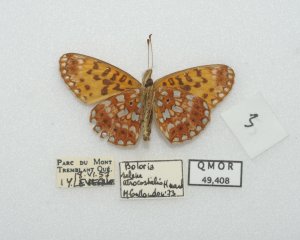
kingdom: Animalia
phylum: Arthropoda
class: Insecta
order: Lepidoptera
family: Nymphalidae
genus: Boloria
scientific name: Boloria selene
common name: Silver-bordered Fritillary
